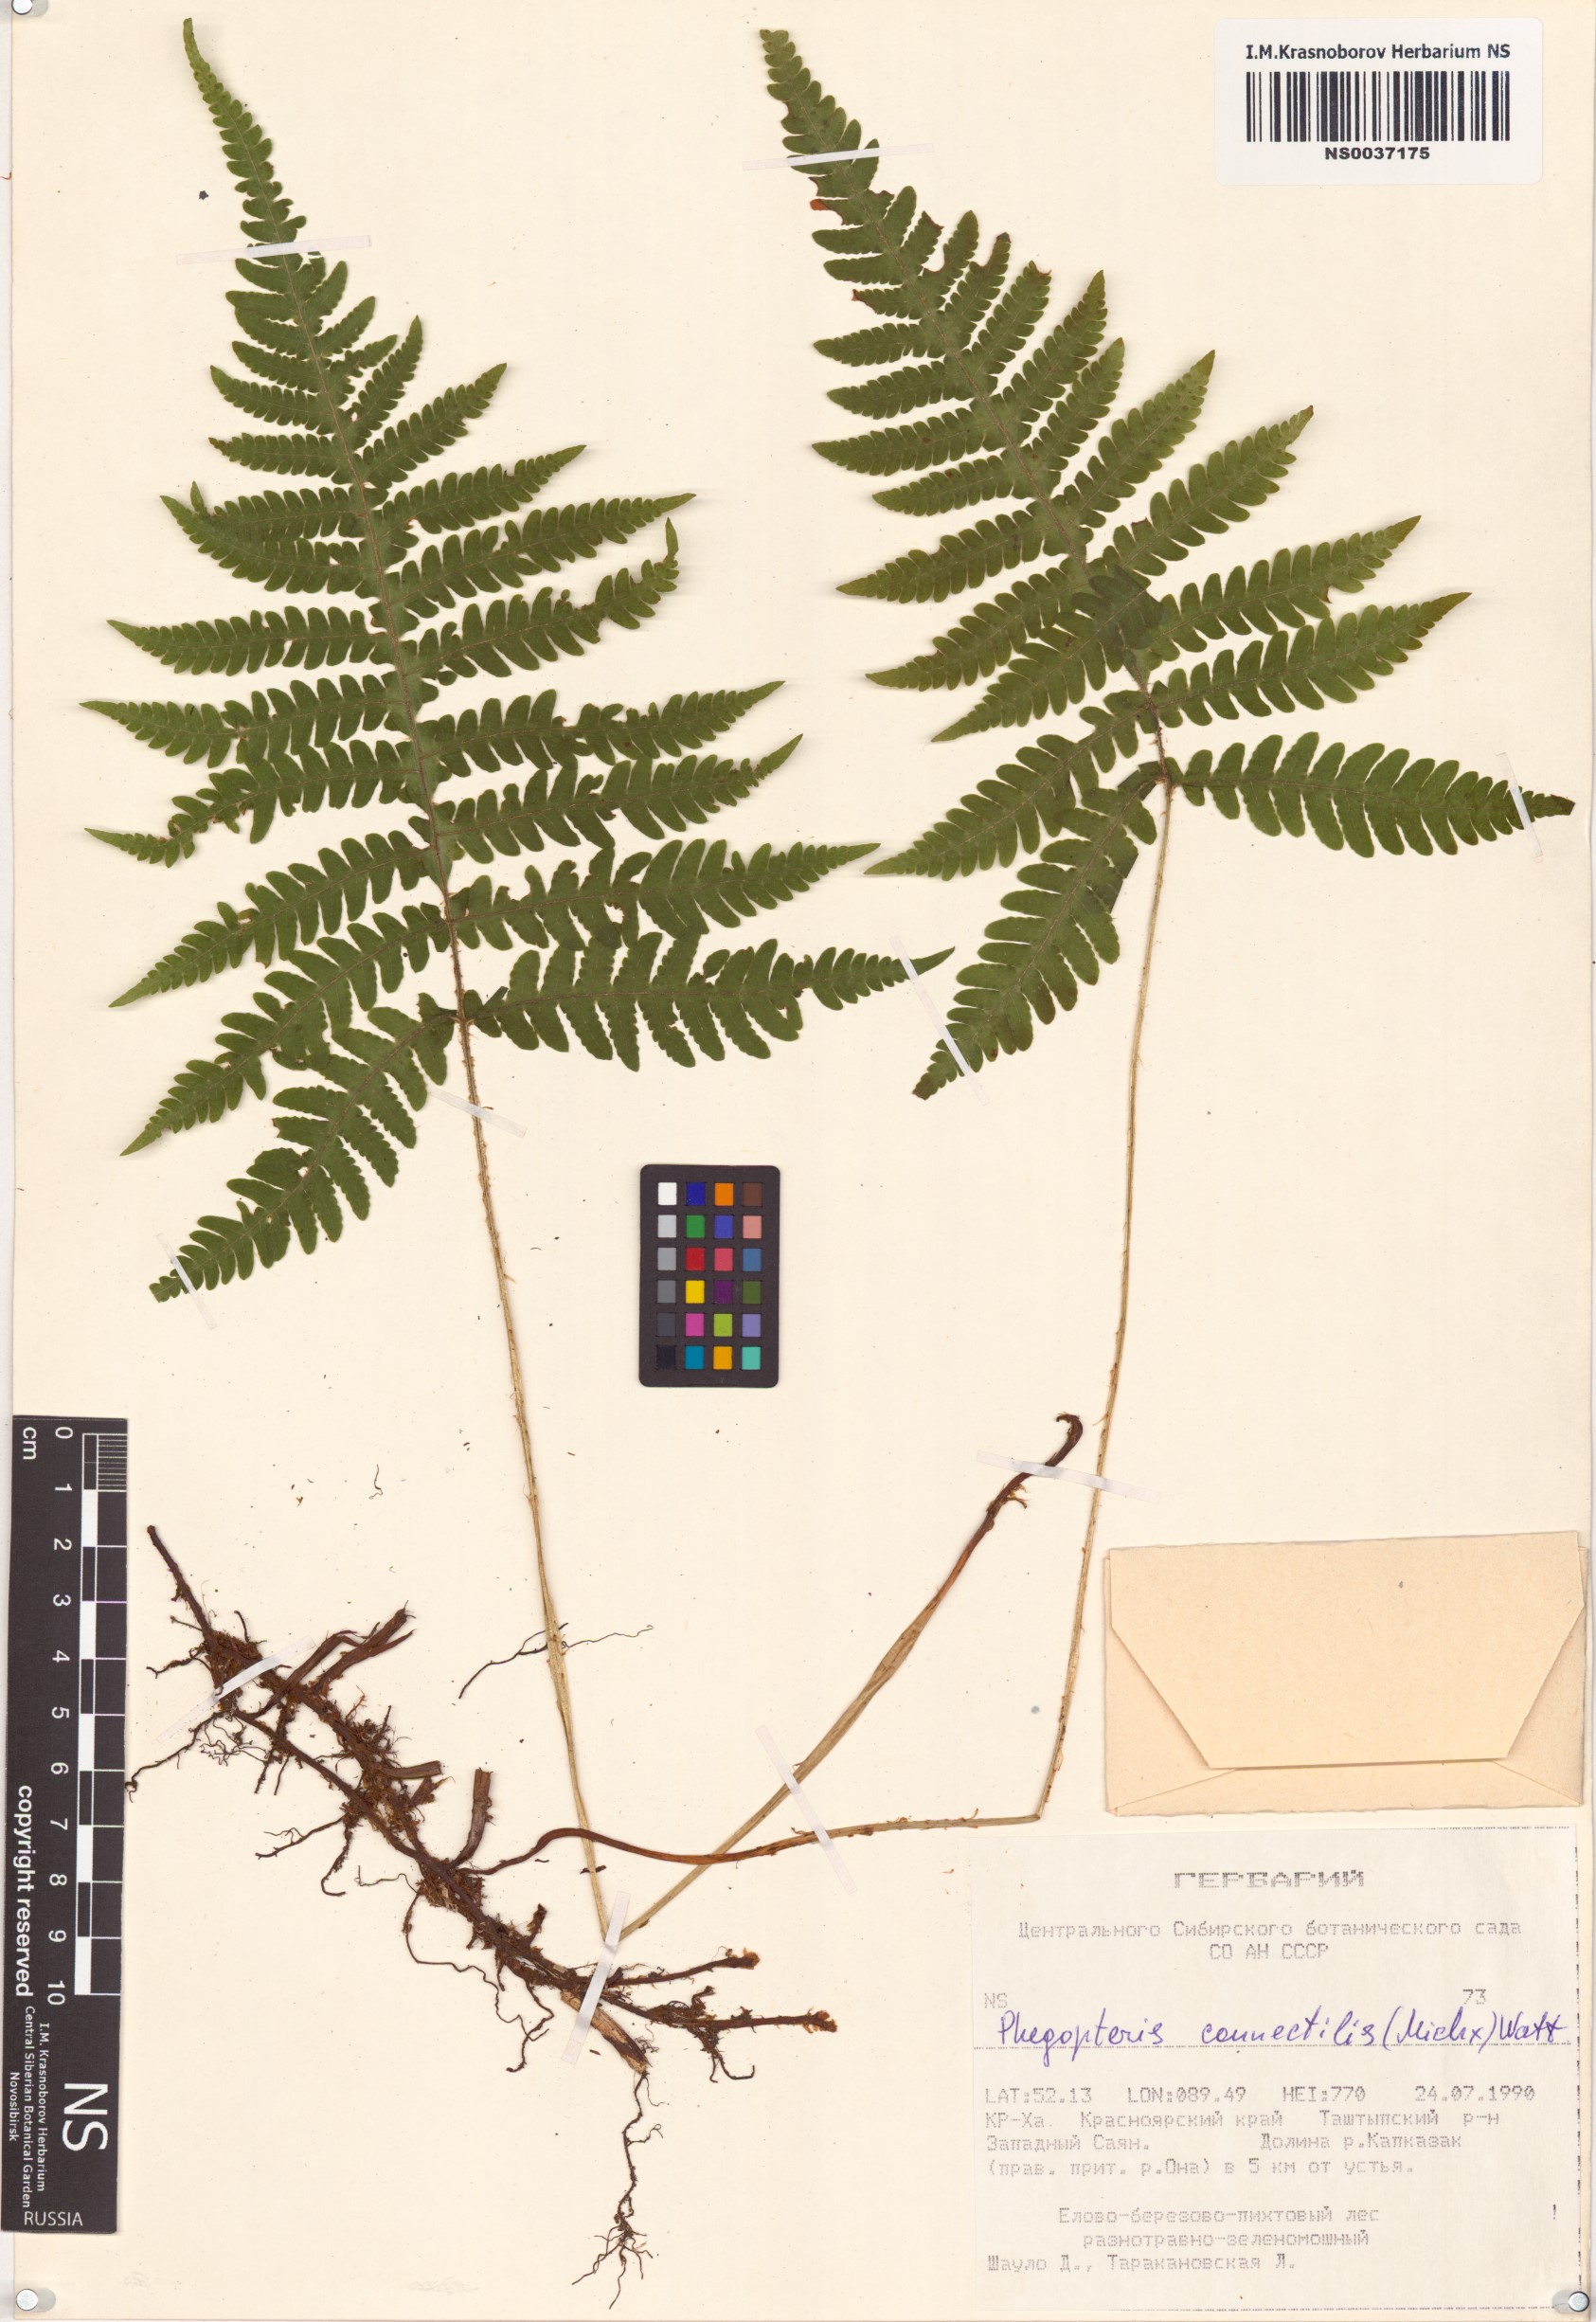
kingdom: Plantae
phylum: Tracheophyta
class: Polypodiopsida
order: Polypodiales
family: Thelypteridaceae
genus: Phegopteris
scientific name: Phegopteris connectilis
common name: Beech fern
